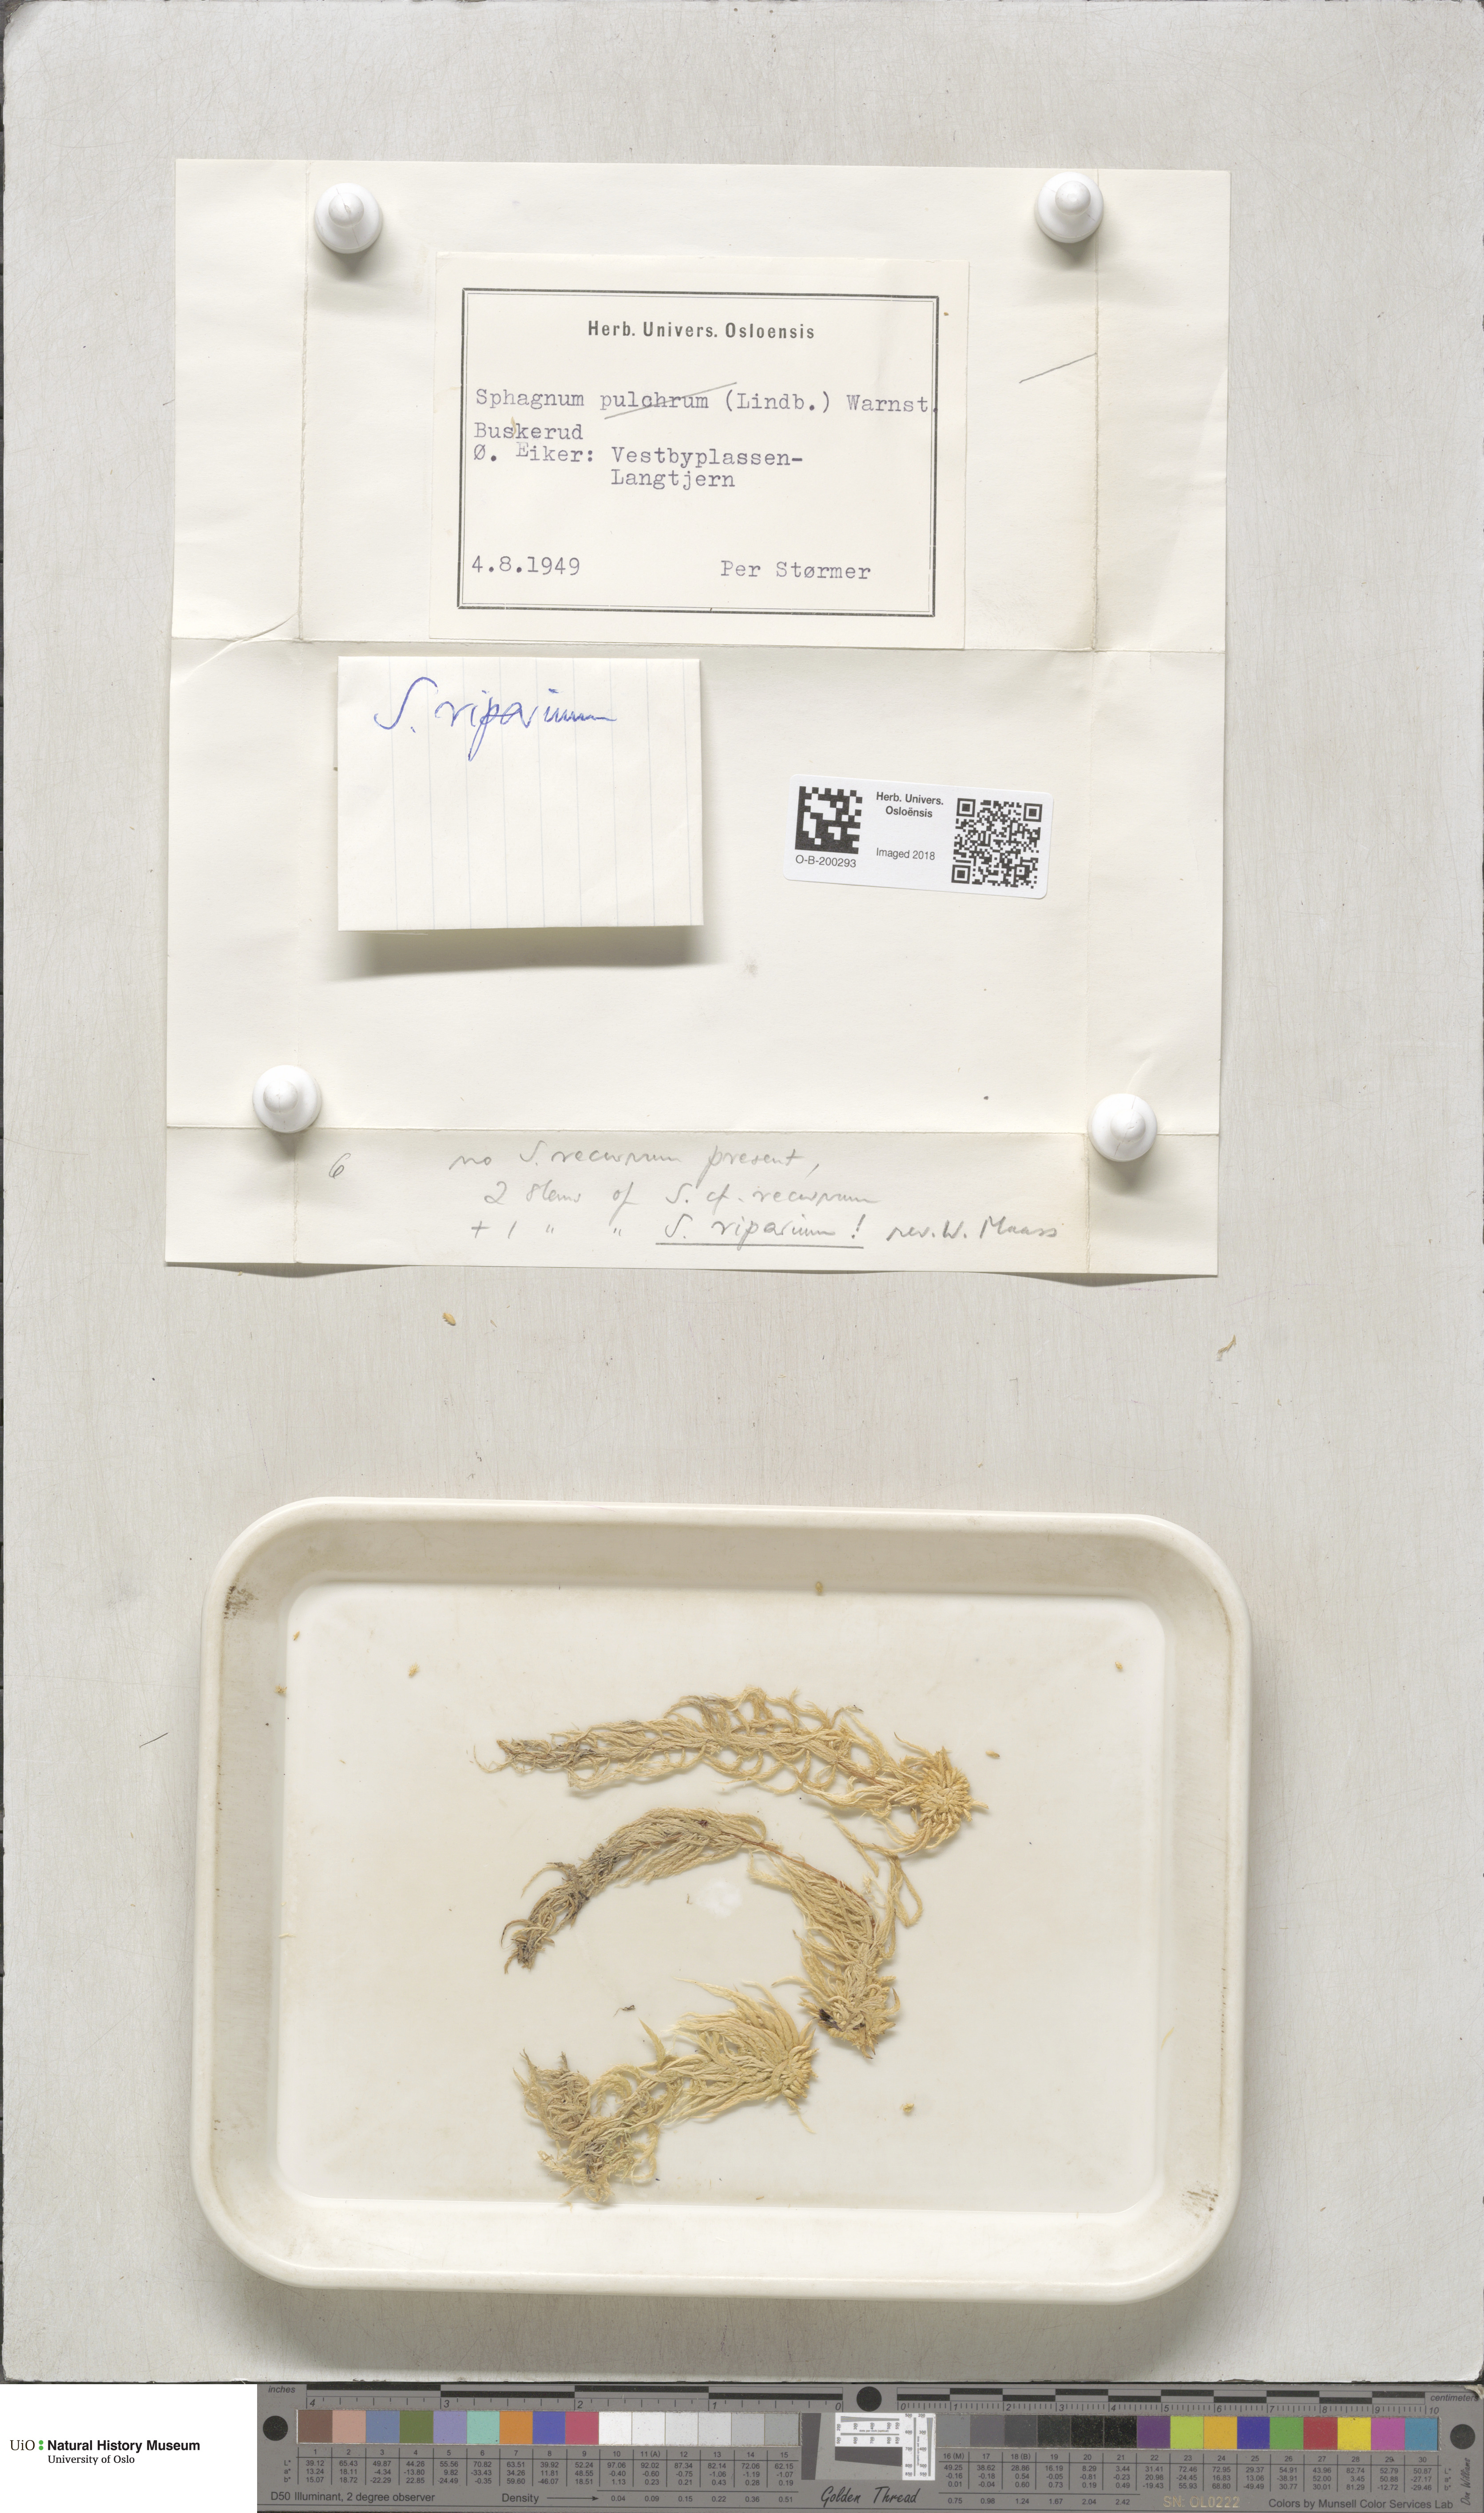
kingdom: Plantae
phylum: Bryophyta
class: Sphagnopsida
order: Sphagnales
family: Sphagnaceae
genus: Sphagnum
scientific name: Sphagnum fallax
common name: Flat-top peat moss
